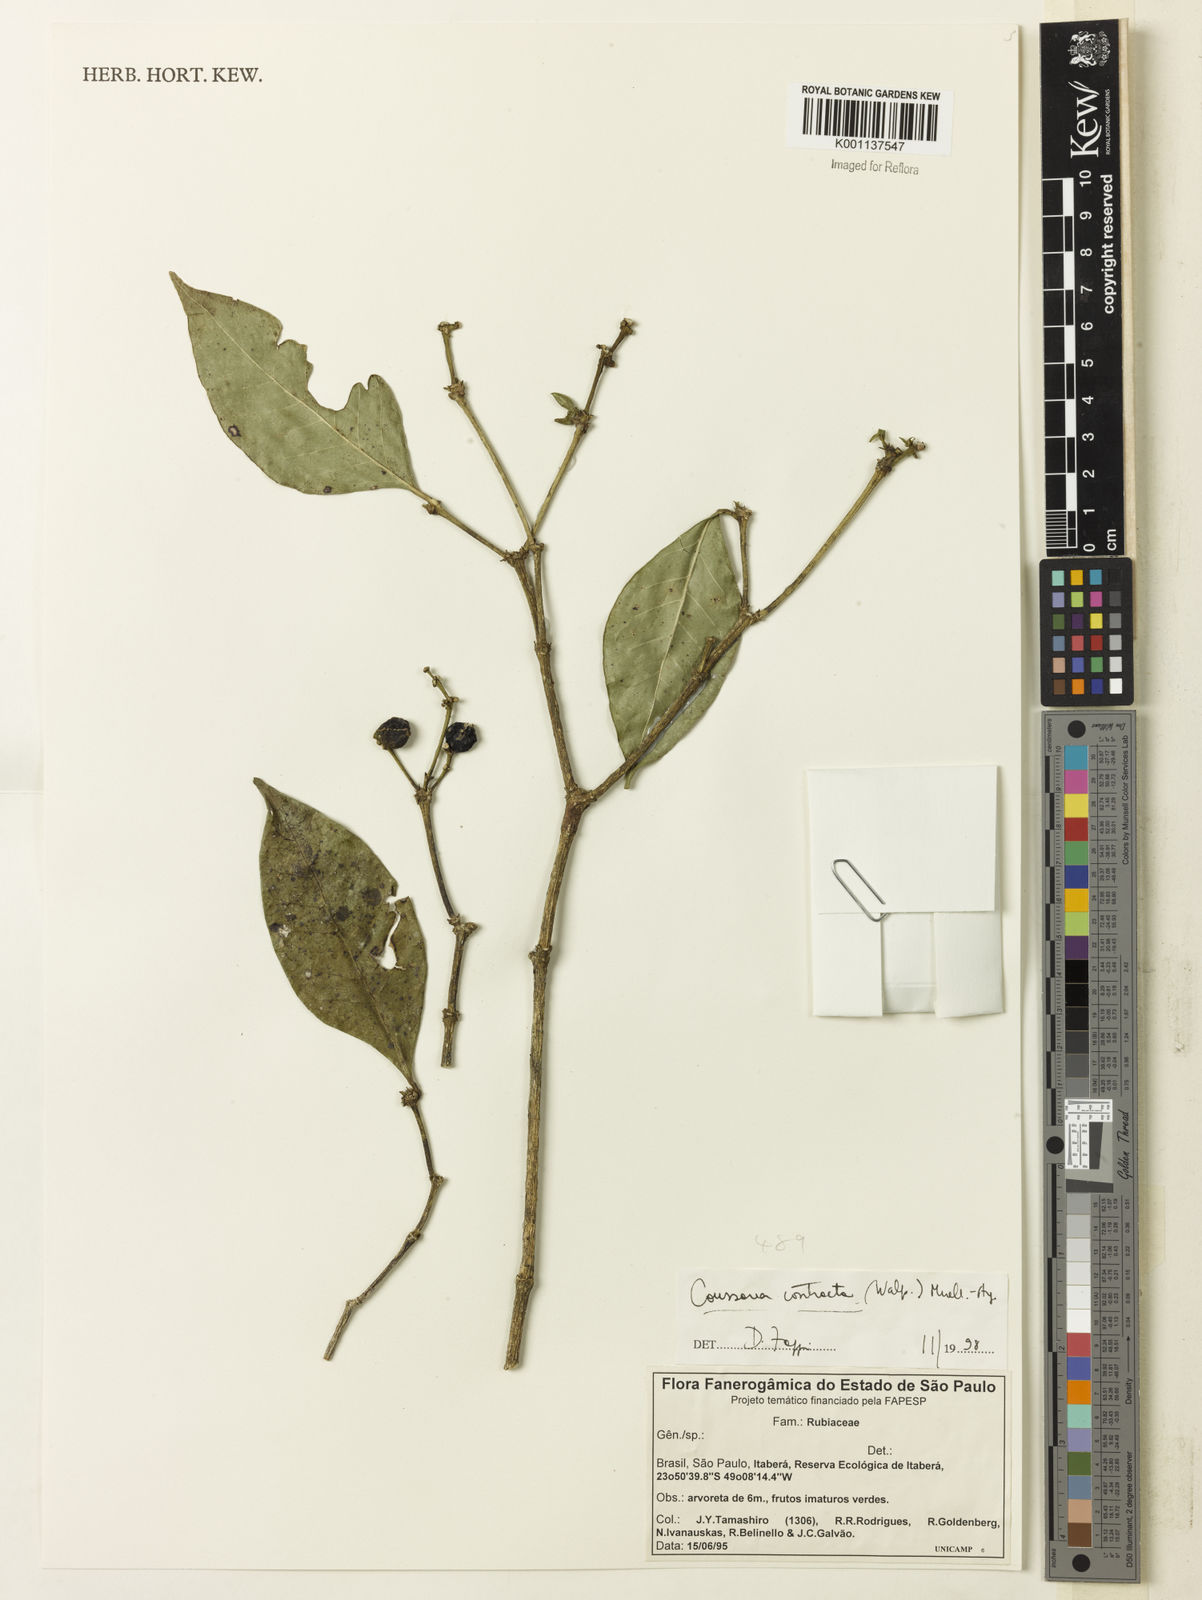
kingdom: Plantae
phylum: Tracheophyta
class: Magnoliopsida
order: Gentianales
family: Rubiaceae
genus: Coussarea
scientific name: Coussarea
